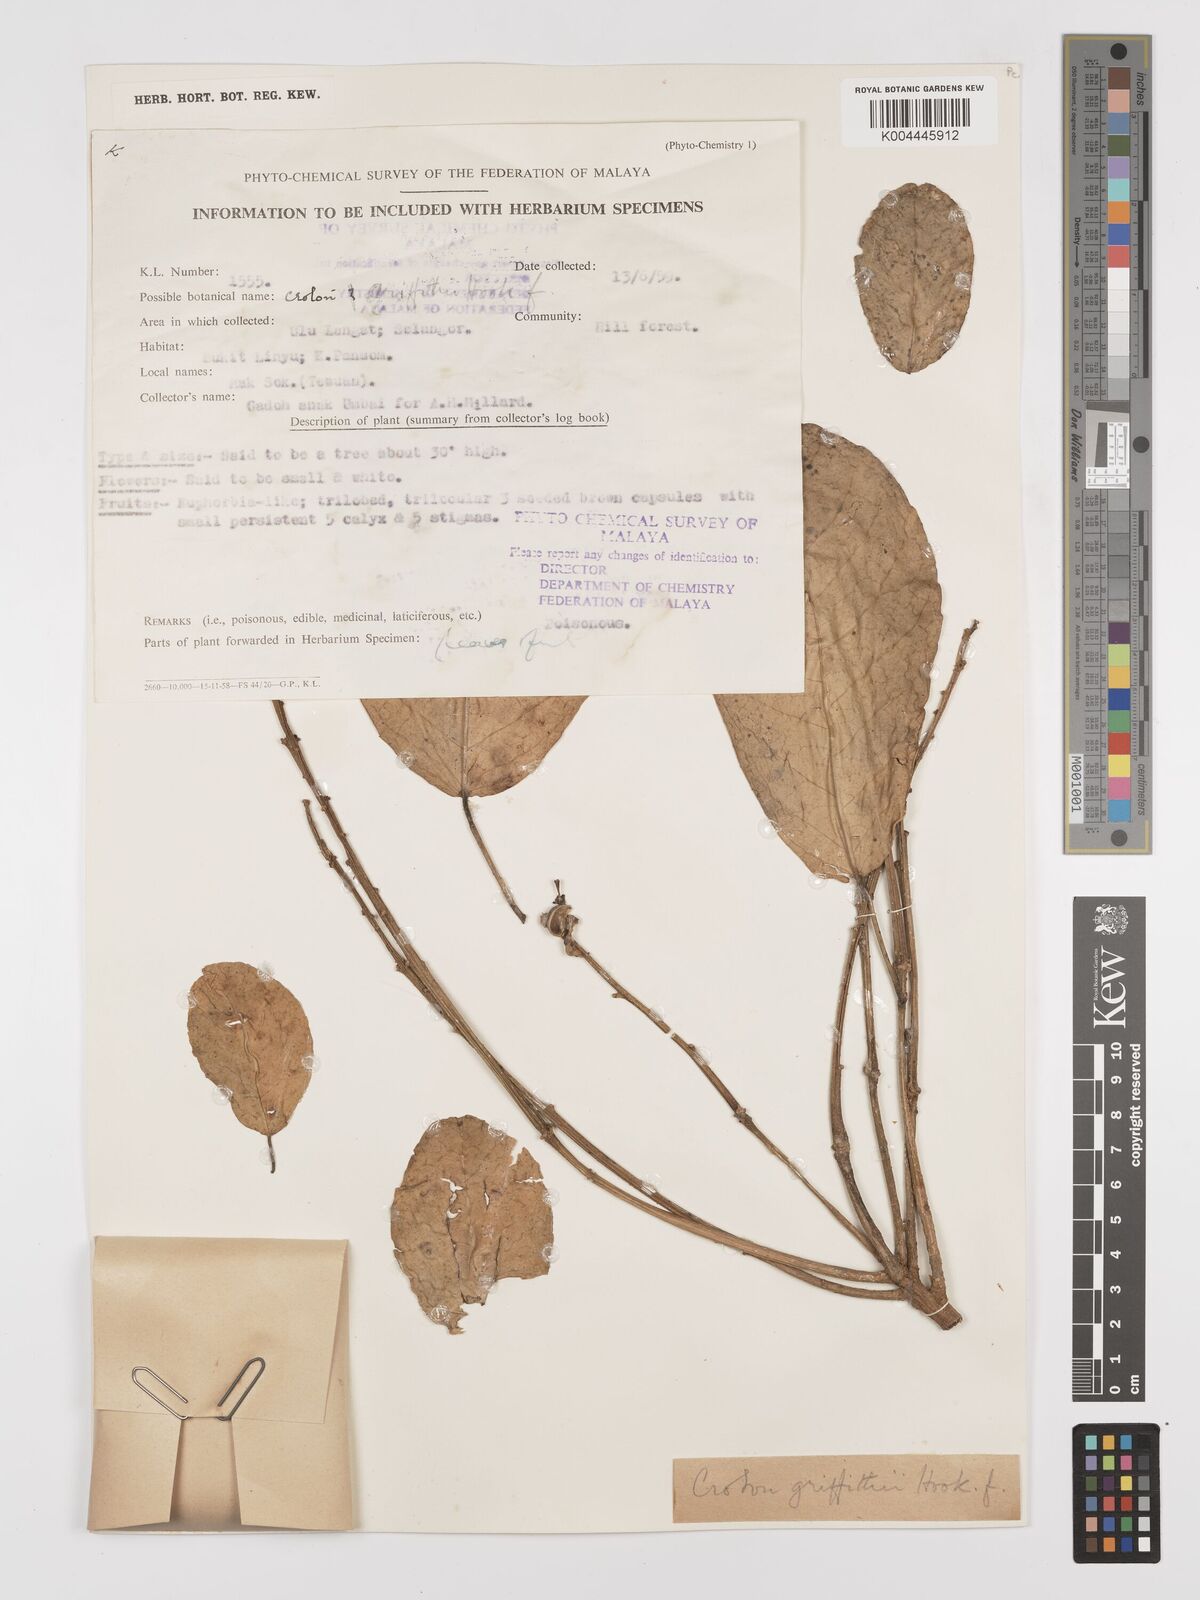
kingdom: Plantae
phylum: Tracheophyta
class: Magnoliopsida
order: Malpighiales
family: Euphorbiaceae
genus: Croton
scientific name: Croton griffithii
